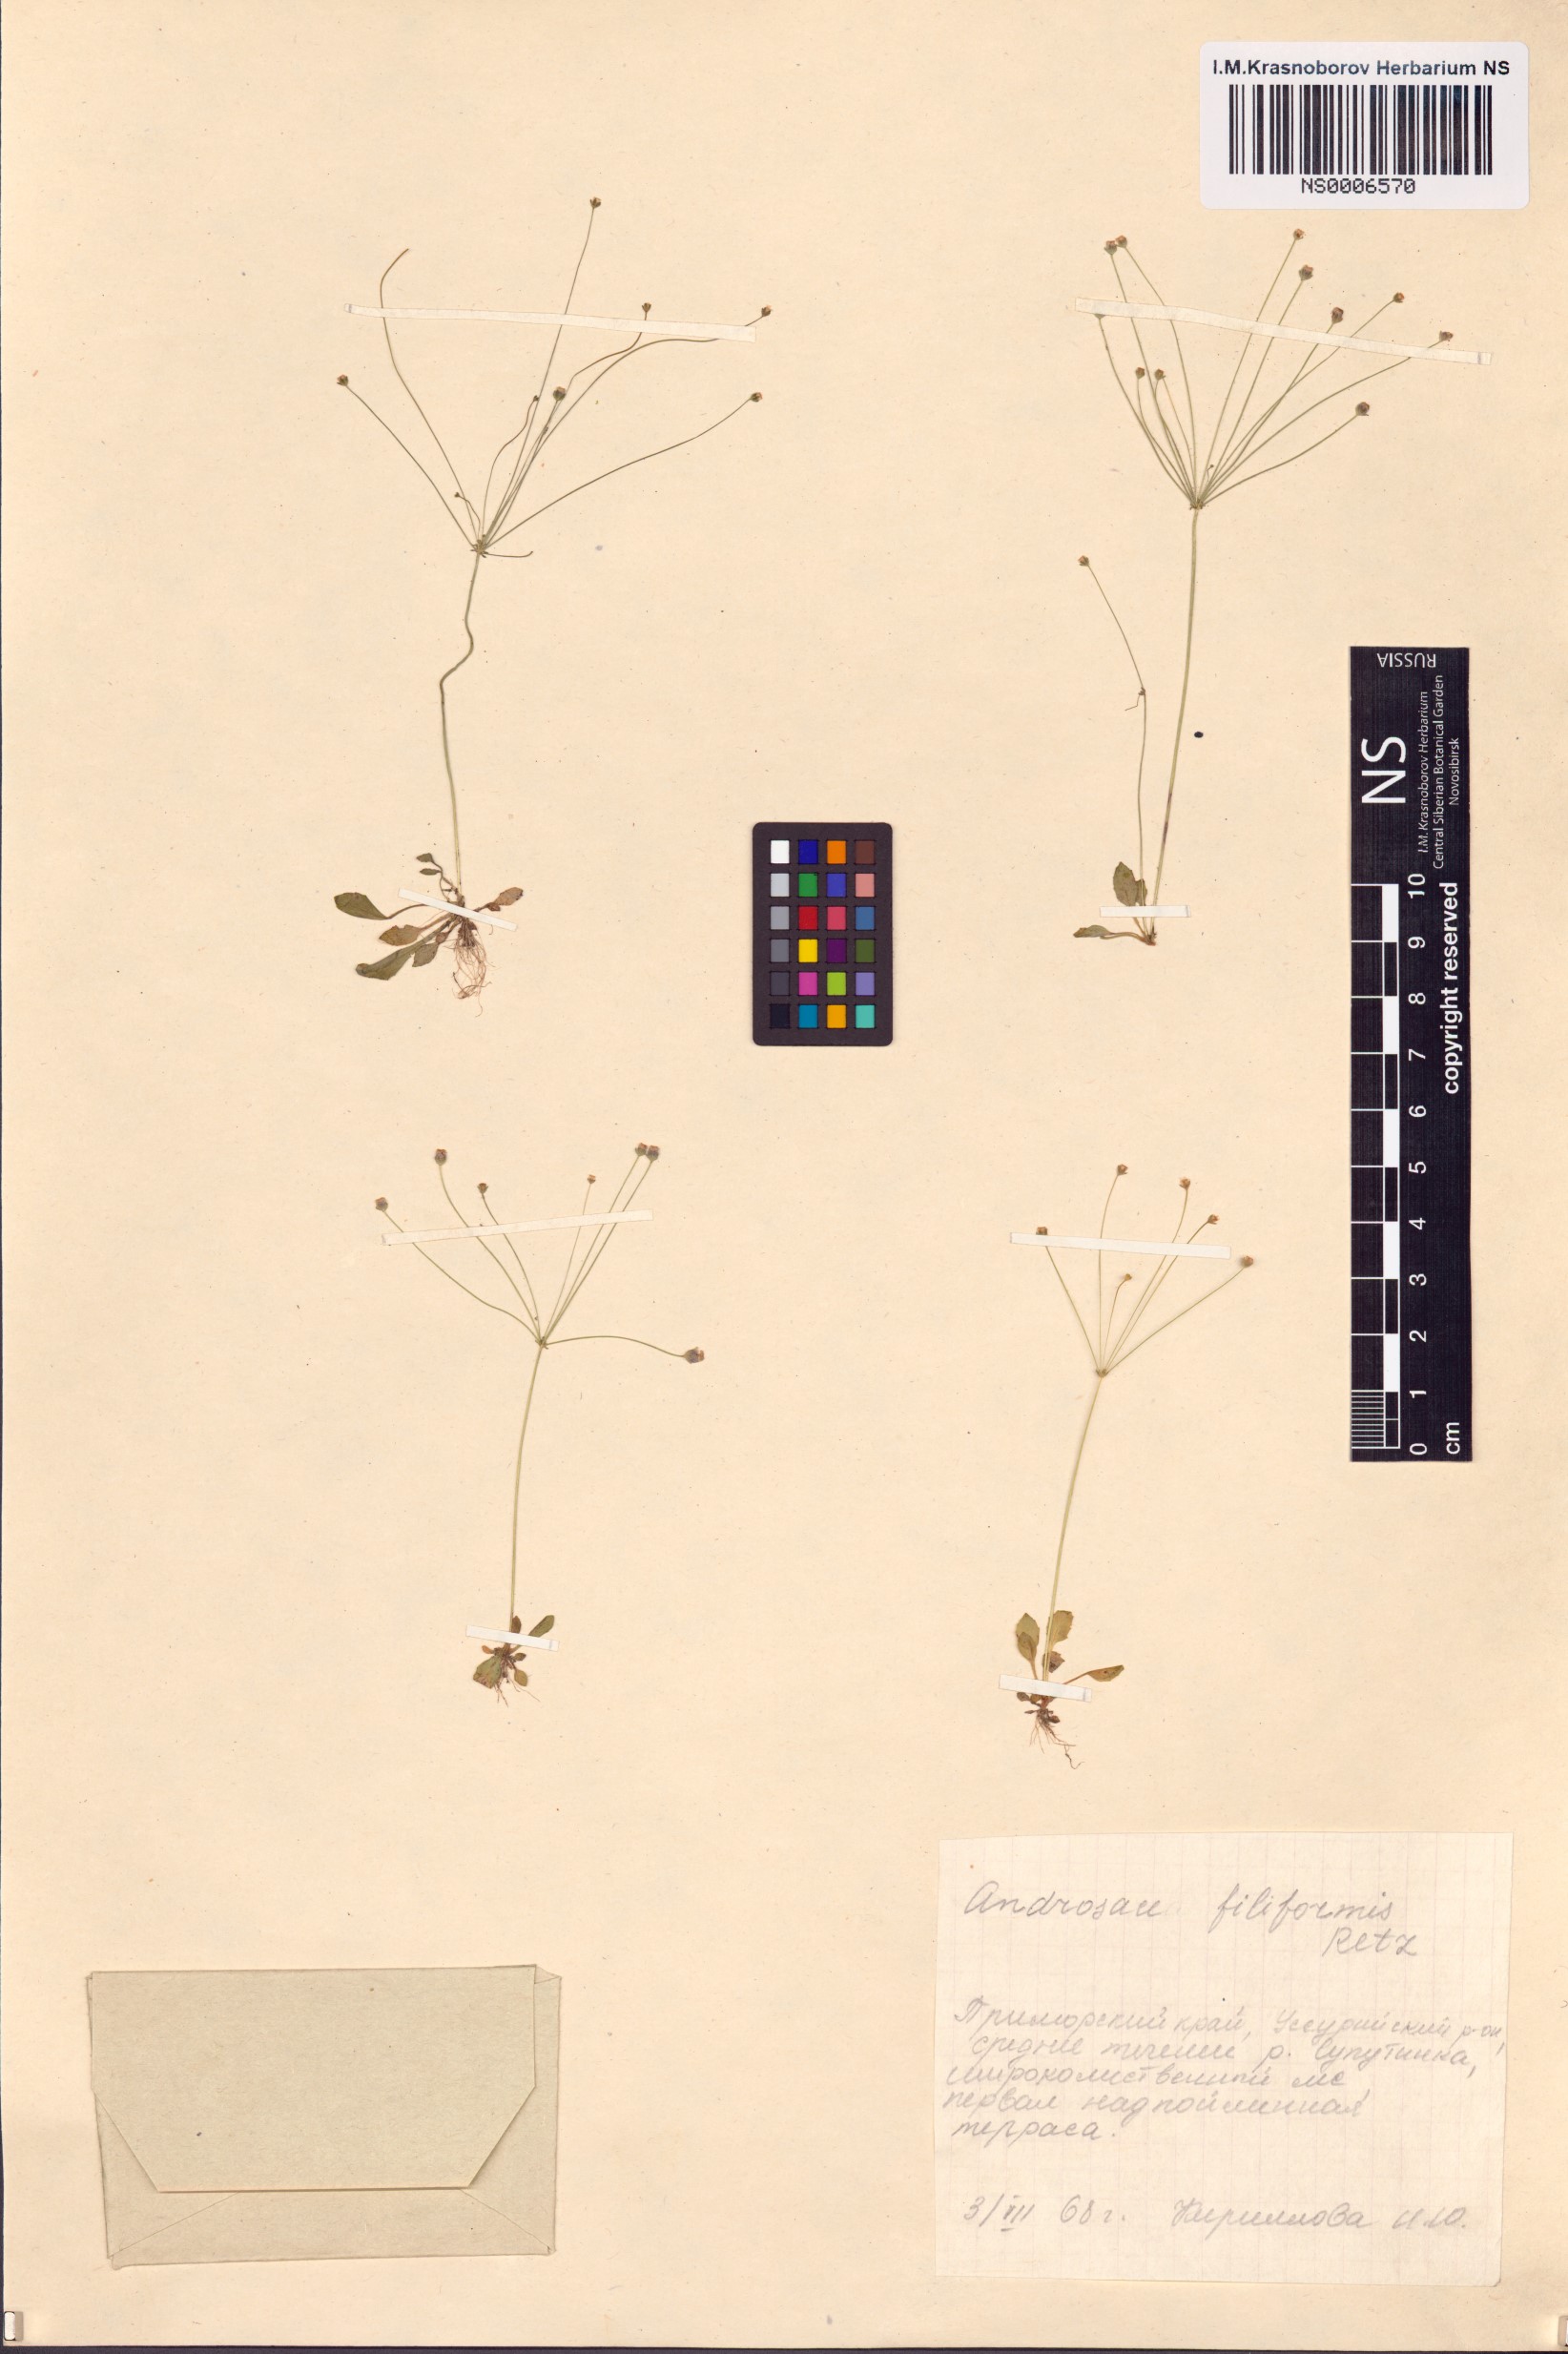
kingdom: Plantae
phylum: Tracheophyta
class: Magnoliopsida
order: Ericales
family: Primulaceae
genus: Androsace
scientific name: Androsace filiformis
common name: Filiform rock jasmine
